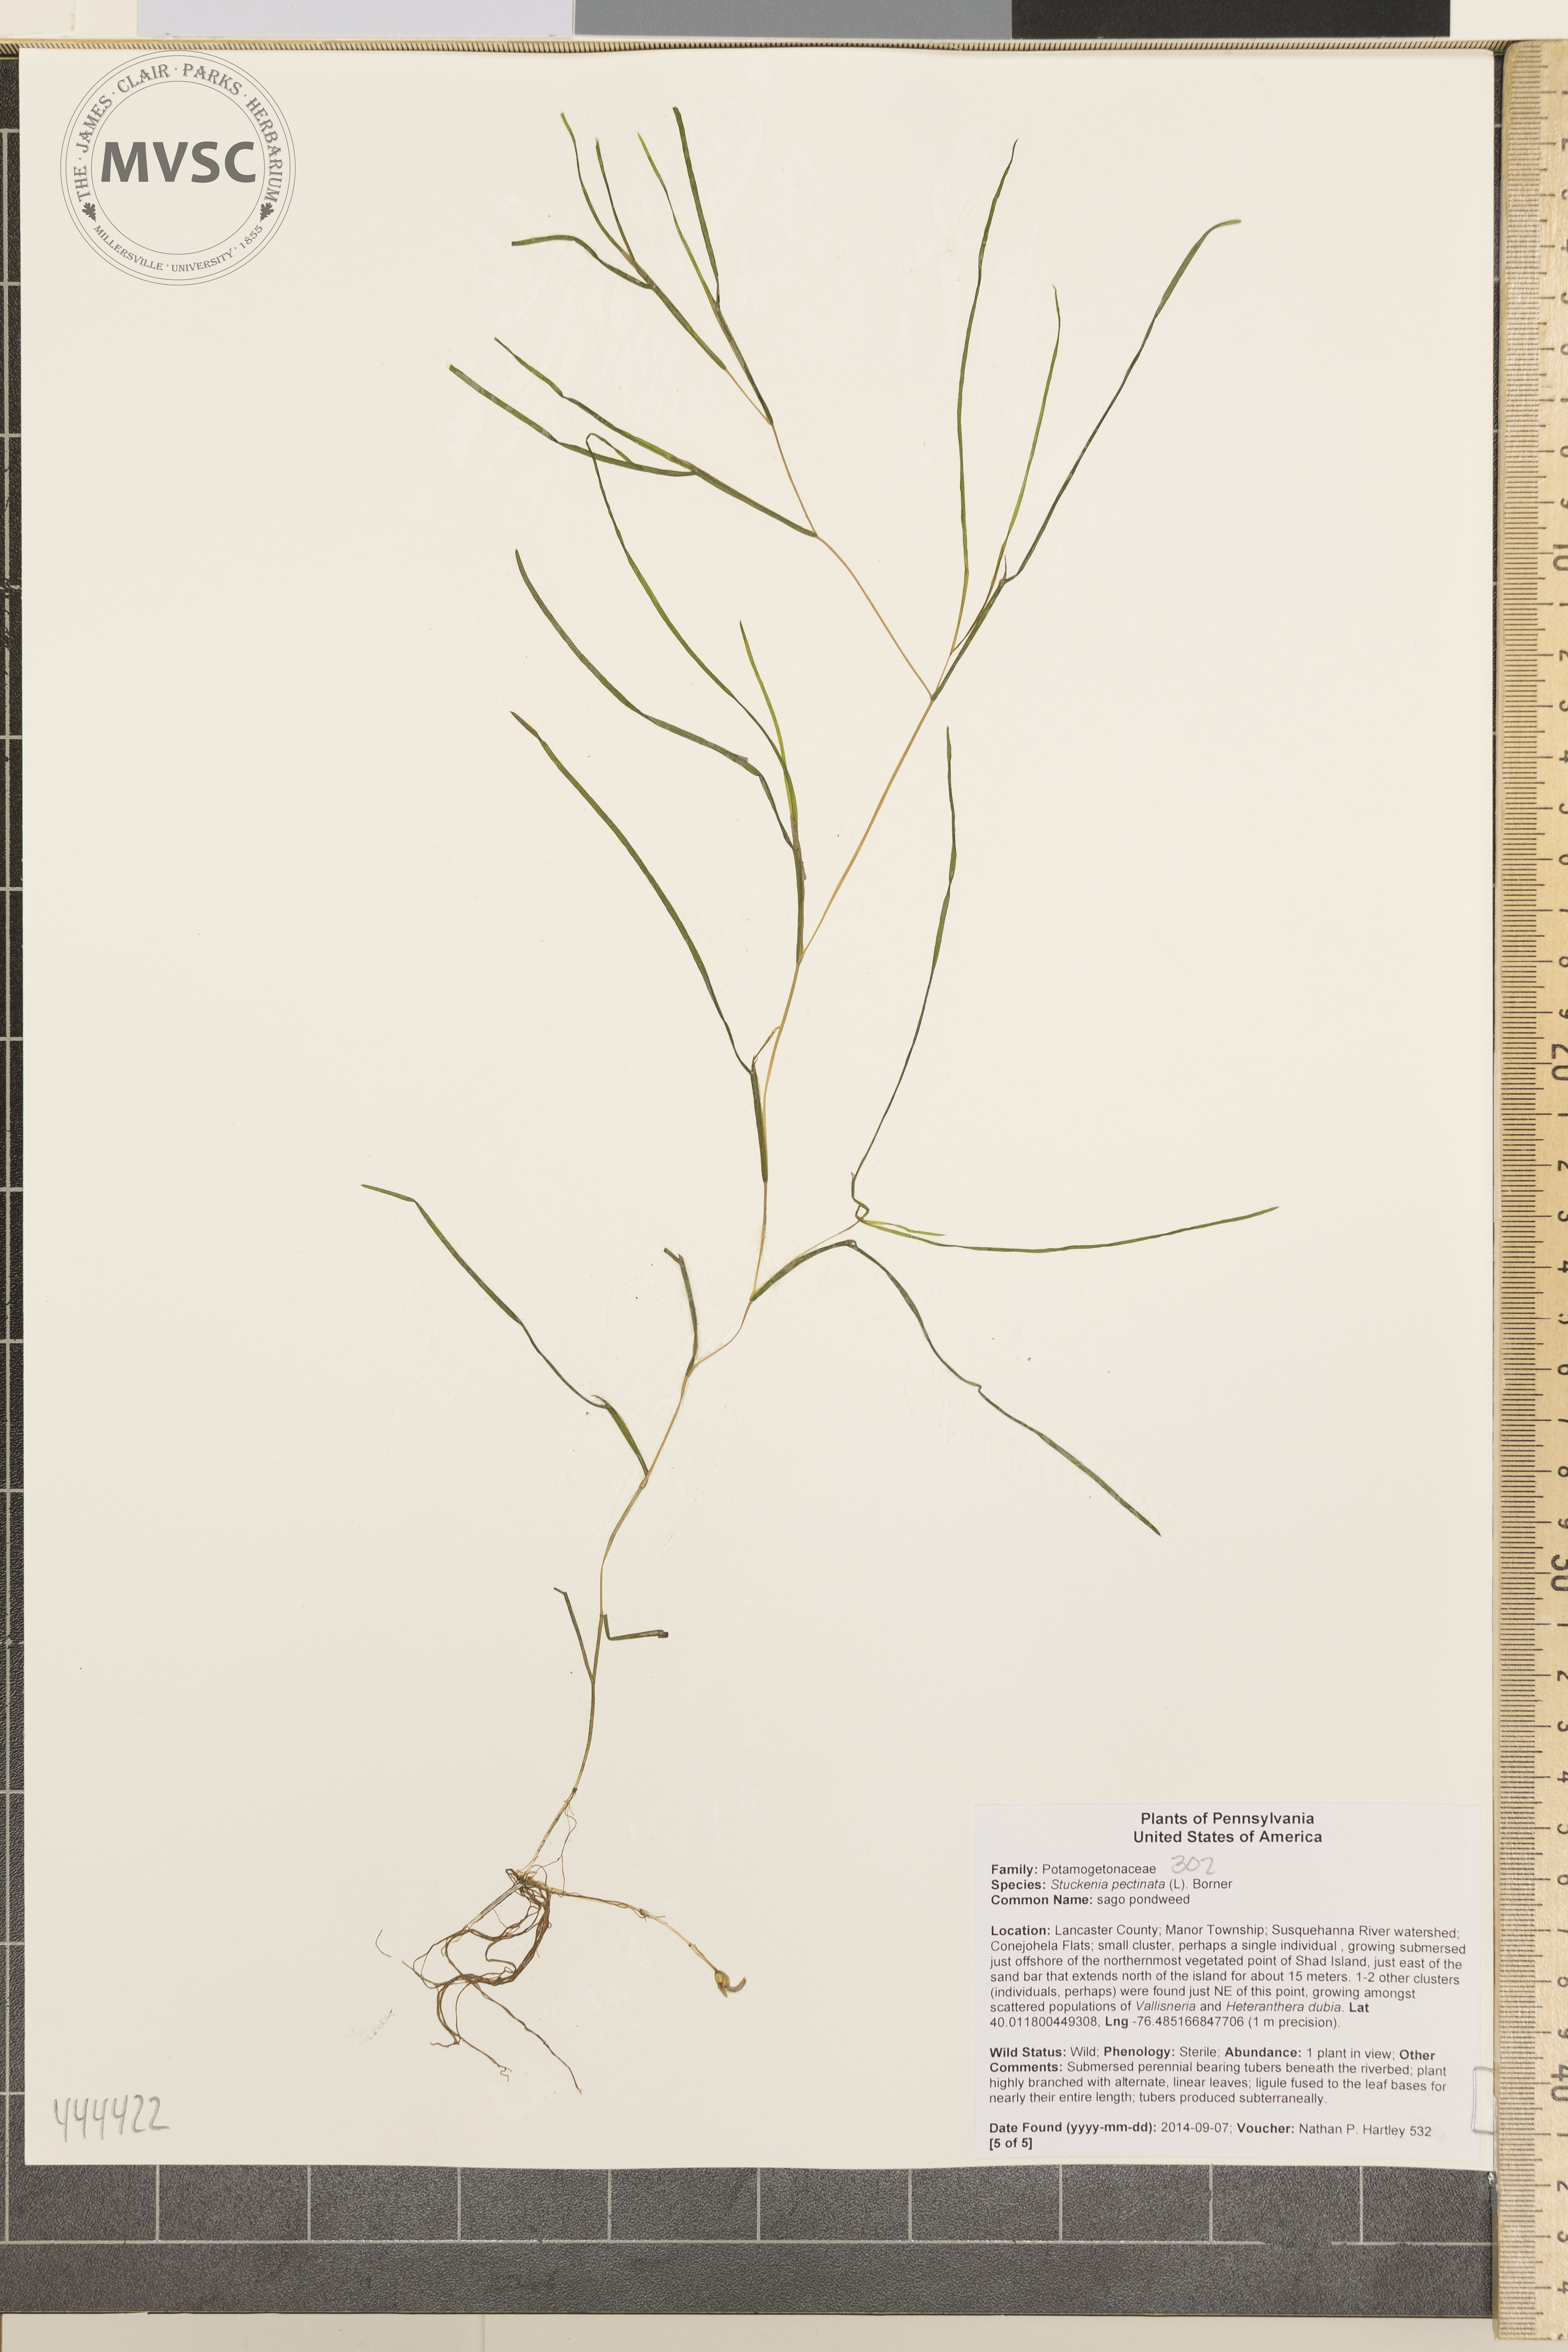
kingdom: Plantae
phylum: Tracheophyta
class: Liliopsida
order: Alismatales
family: Potamogetonaceae
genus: Stuckenia
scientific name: Stuckenia pectinata
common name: Sago pondweed
